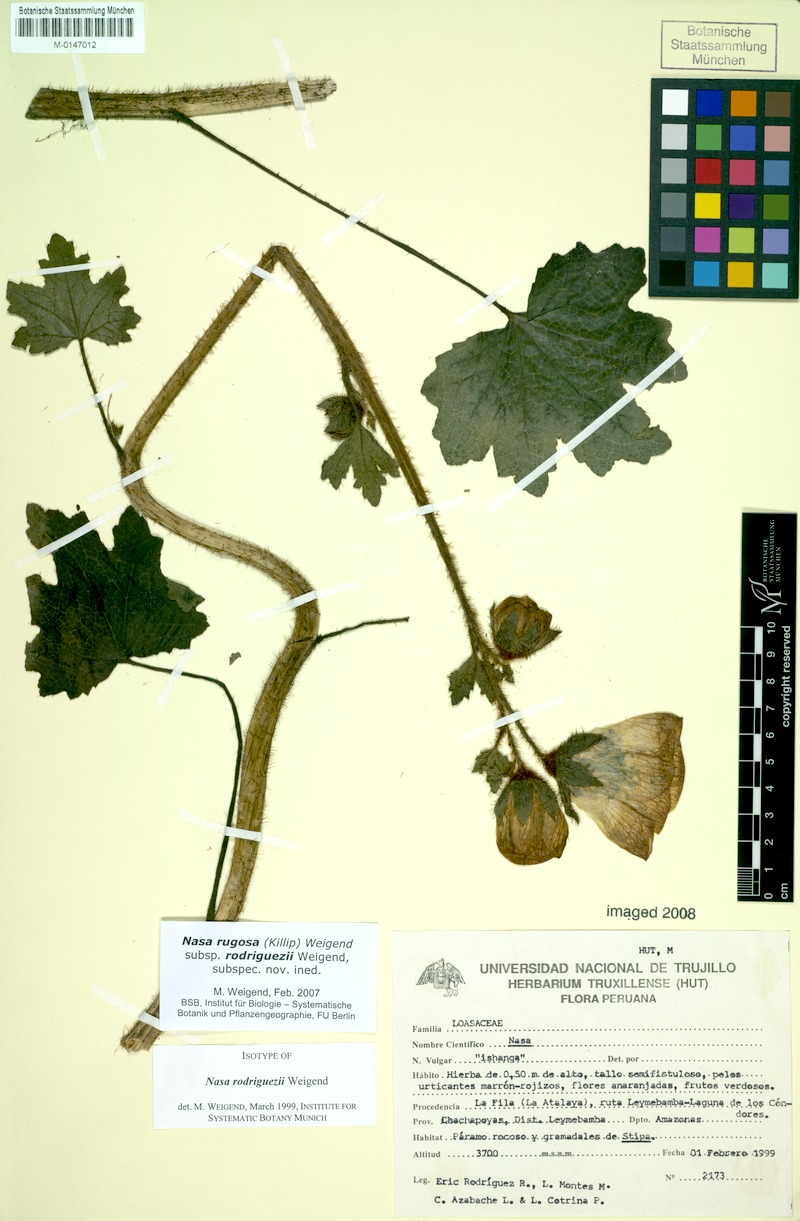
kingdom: Plantae
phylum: Tracheophyta
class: Magnoliopsida
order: Cornales
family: Loasaceae
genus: Nasa
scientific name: Nasa rugosa
